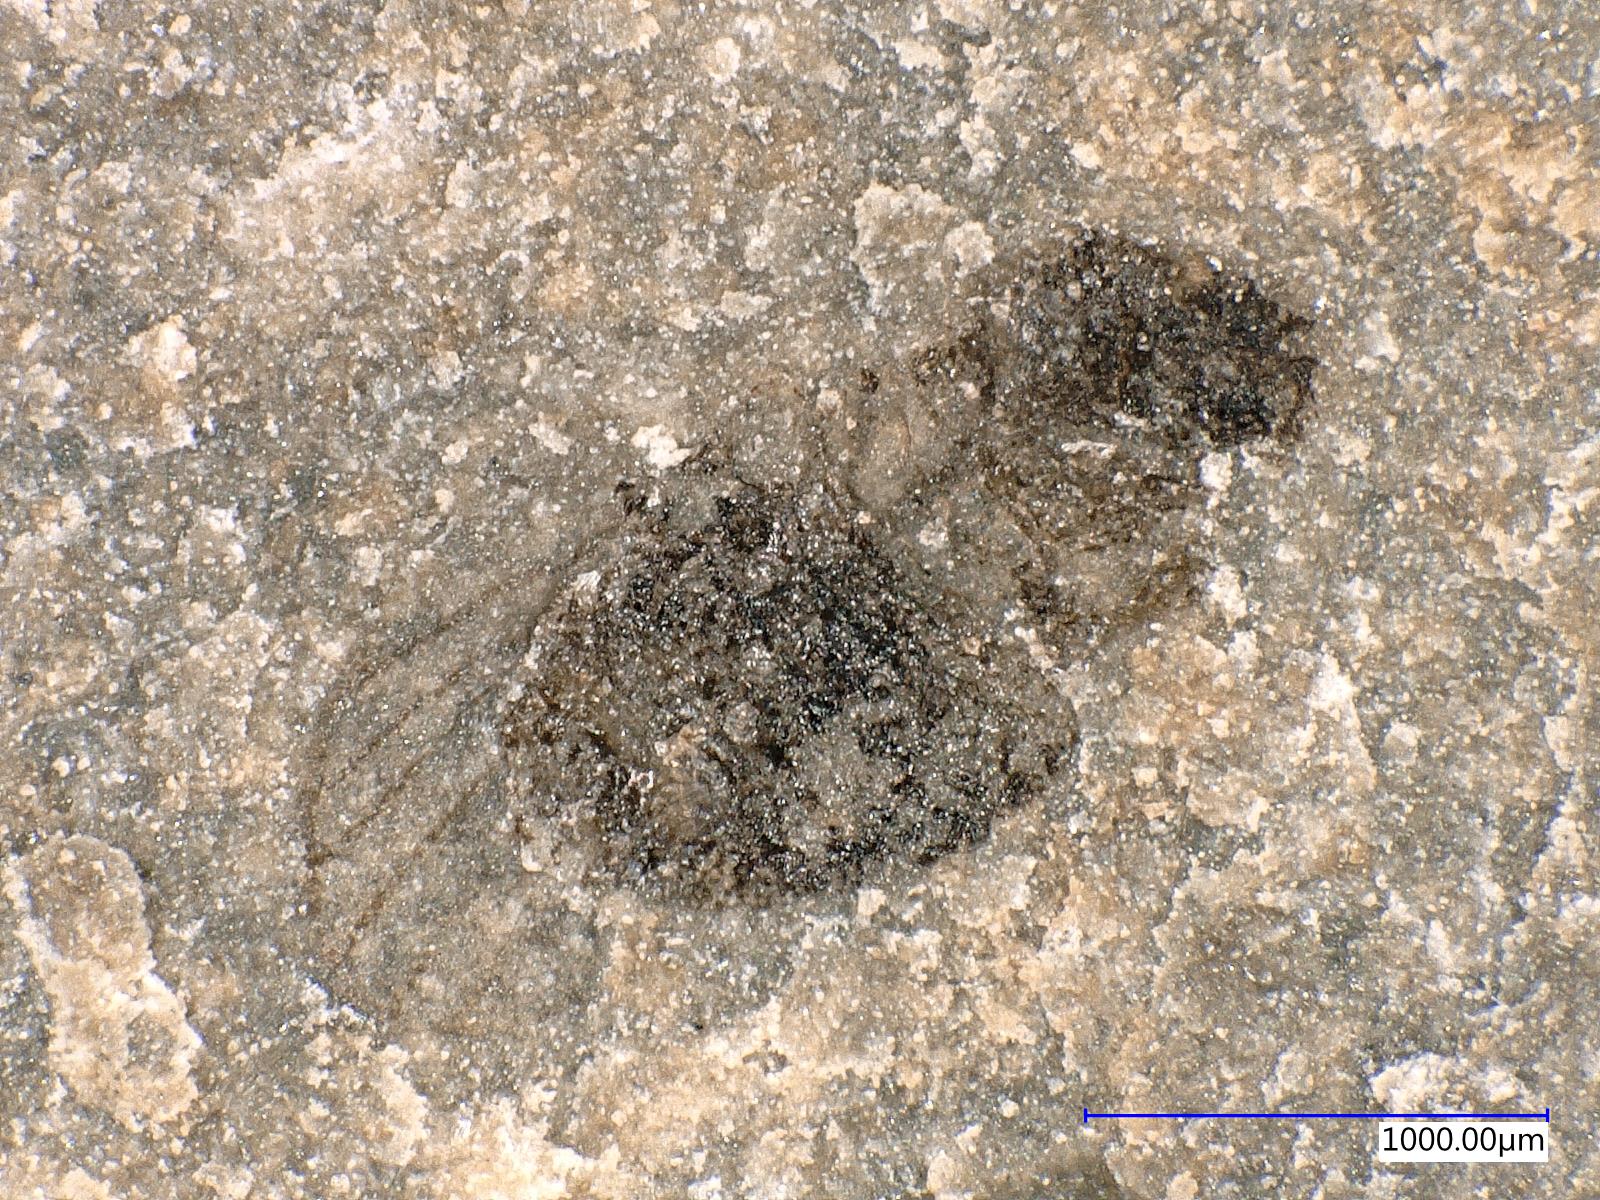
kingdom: Animalia
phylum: Arthropoda
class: Insecta
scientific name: Insecta
